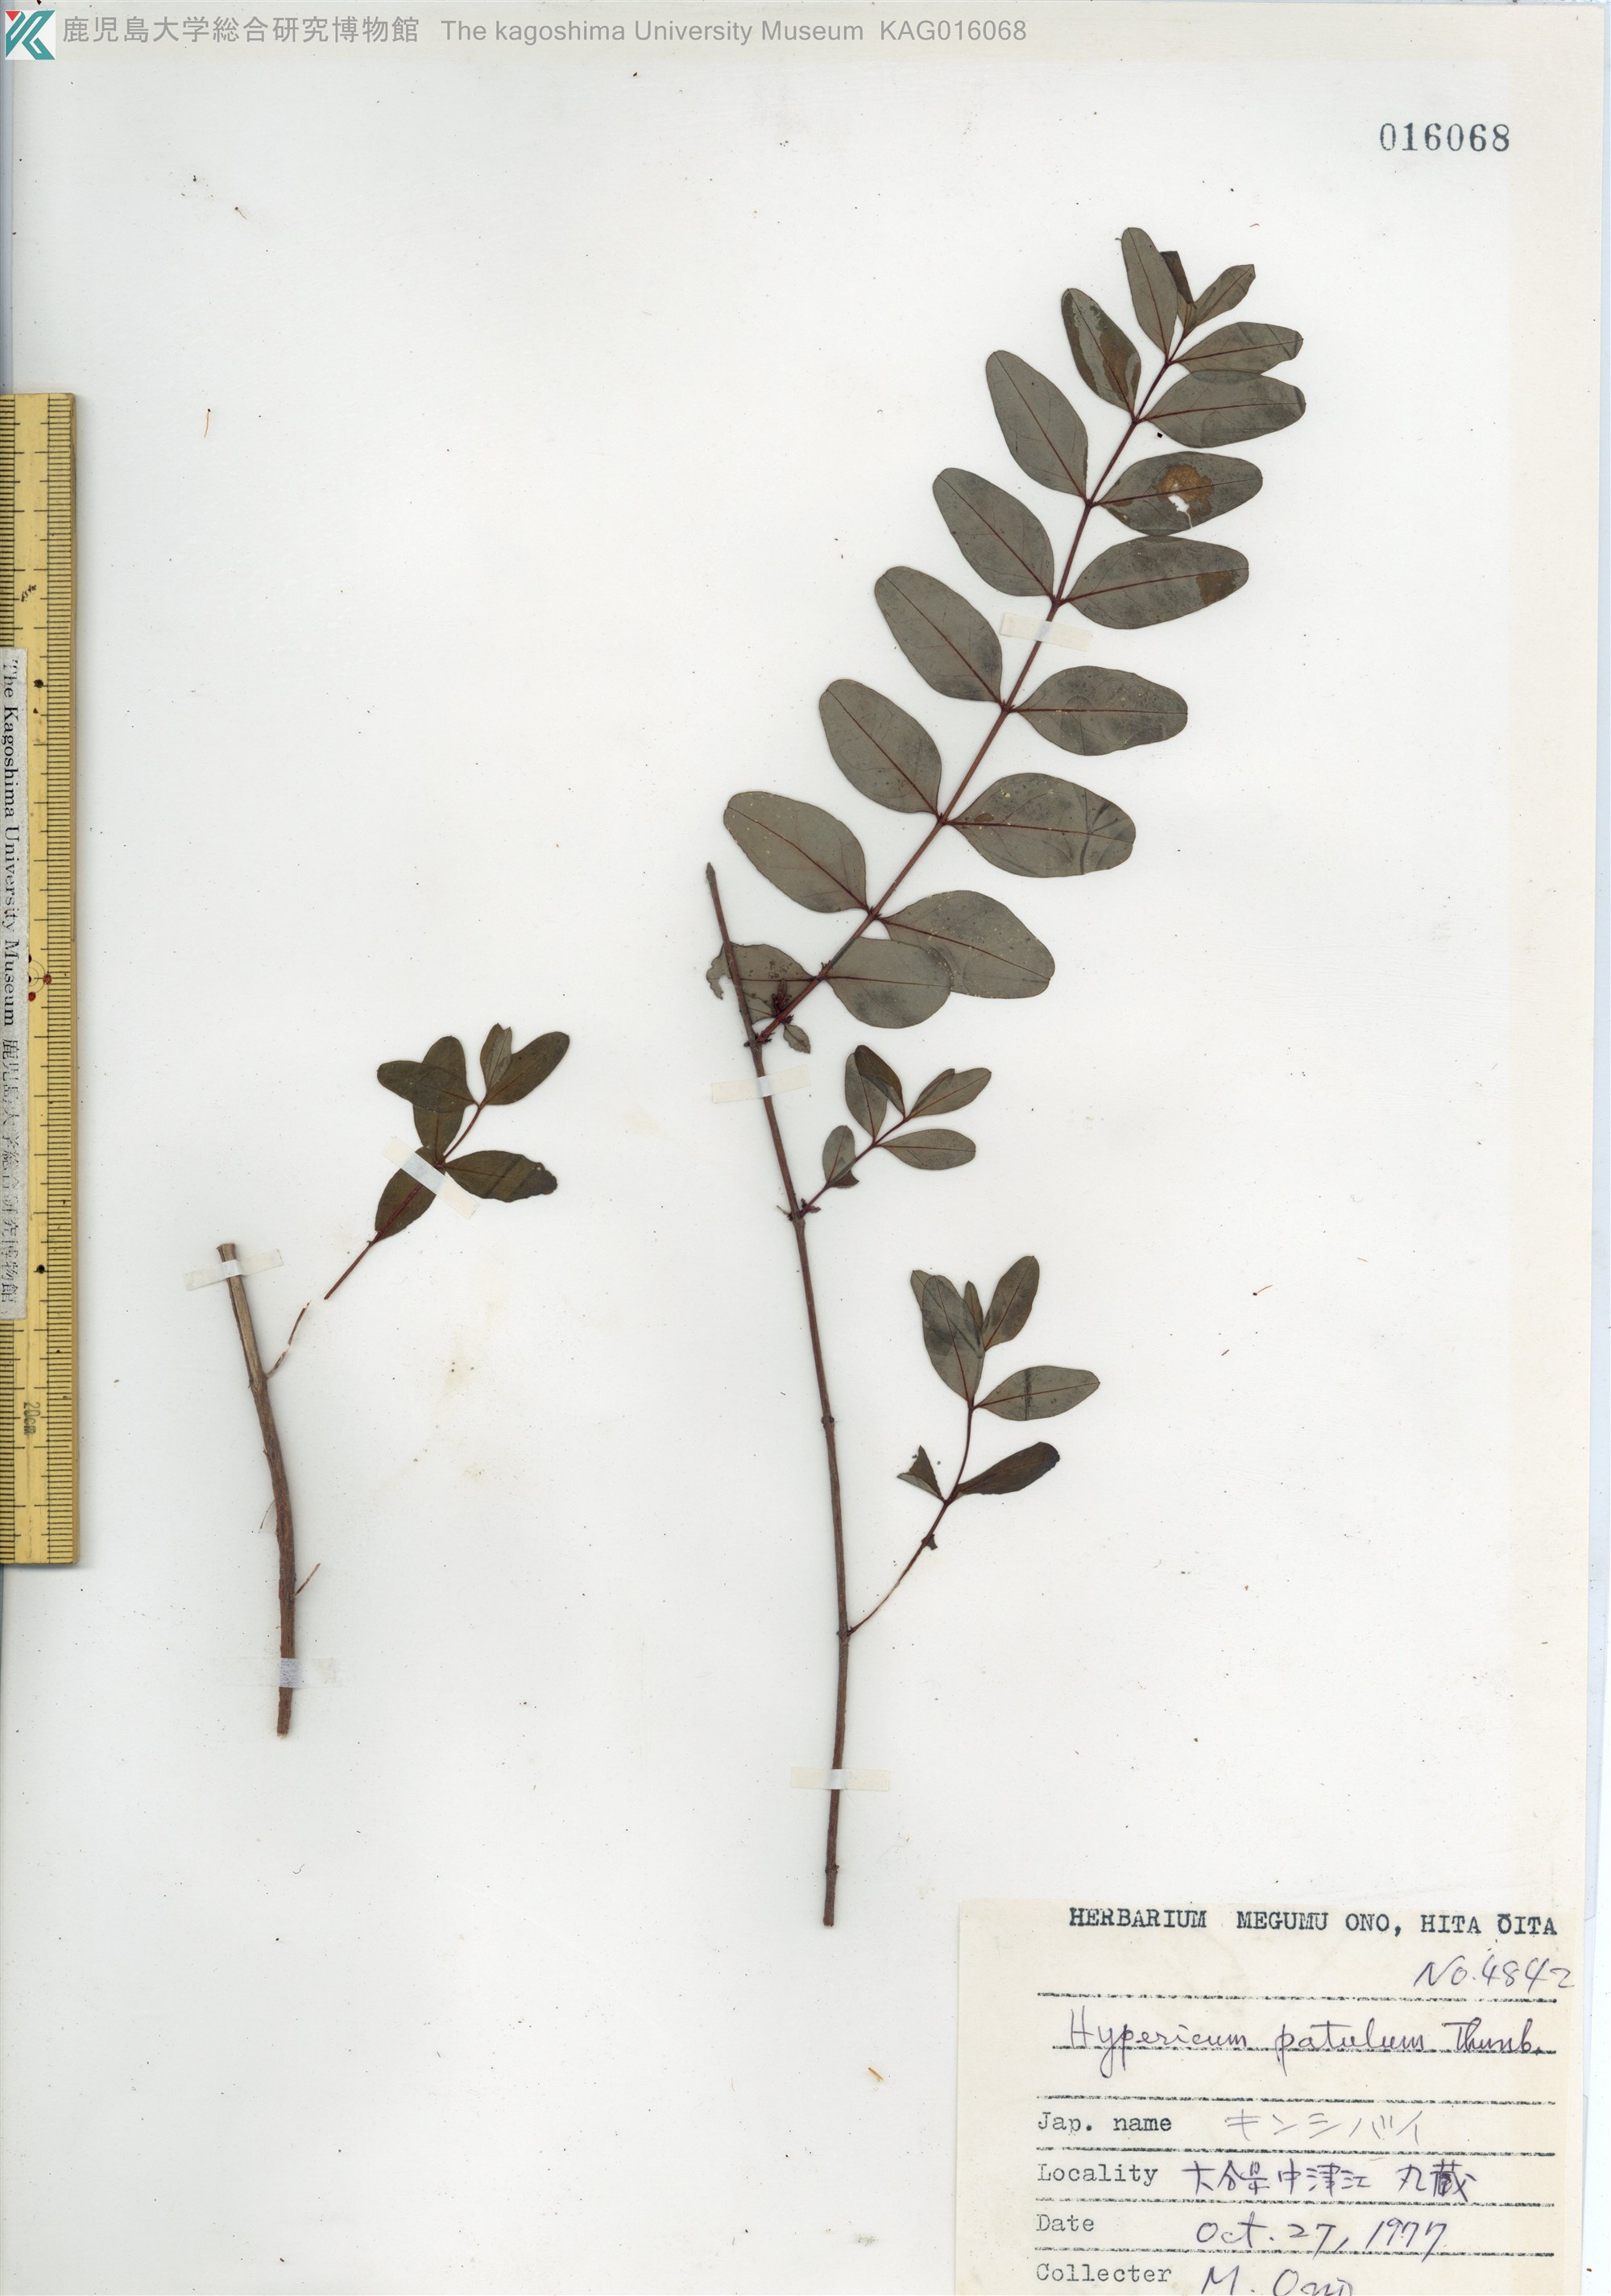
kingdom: Plantae
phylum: Tracheophyta
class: Magnoliopsida
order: Malpighiales
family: Hypericaceae
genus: Hypericum
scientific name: Hypericum patulum
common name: キンシバイ
